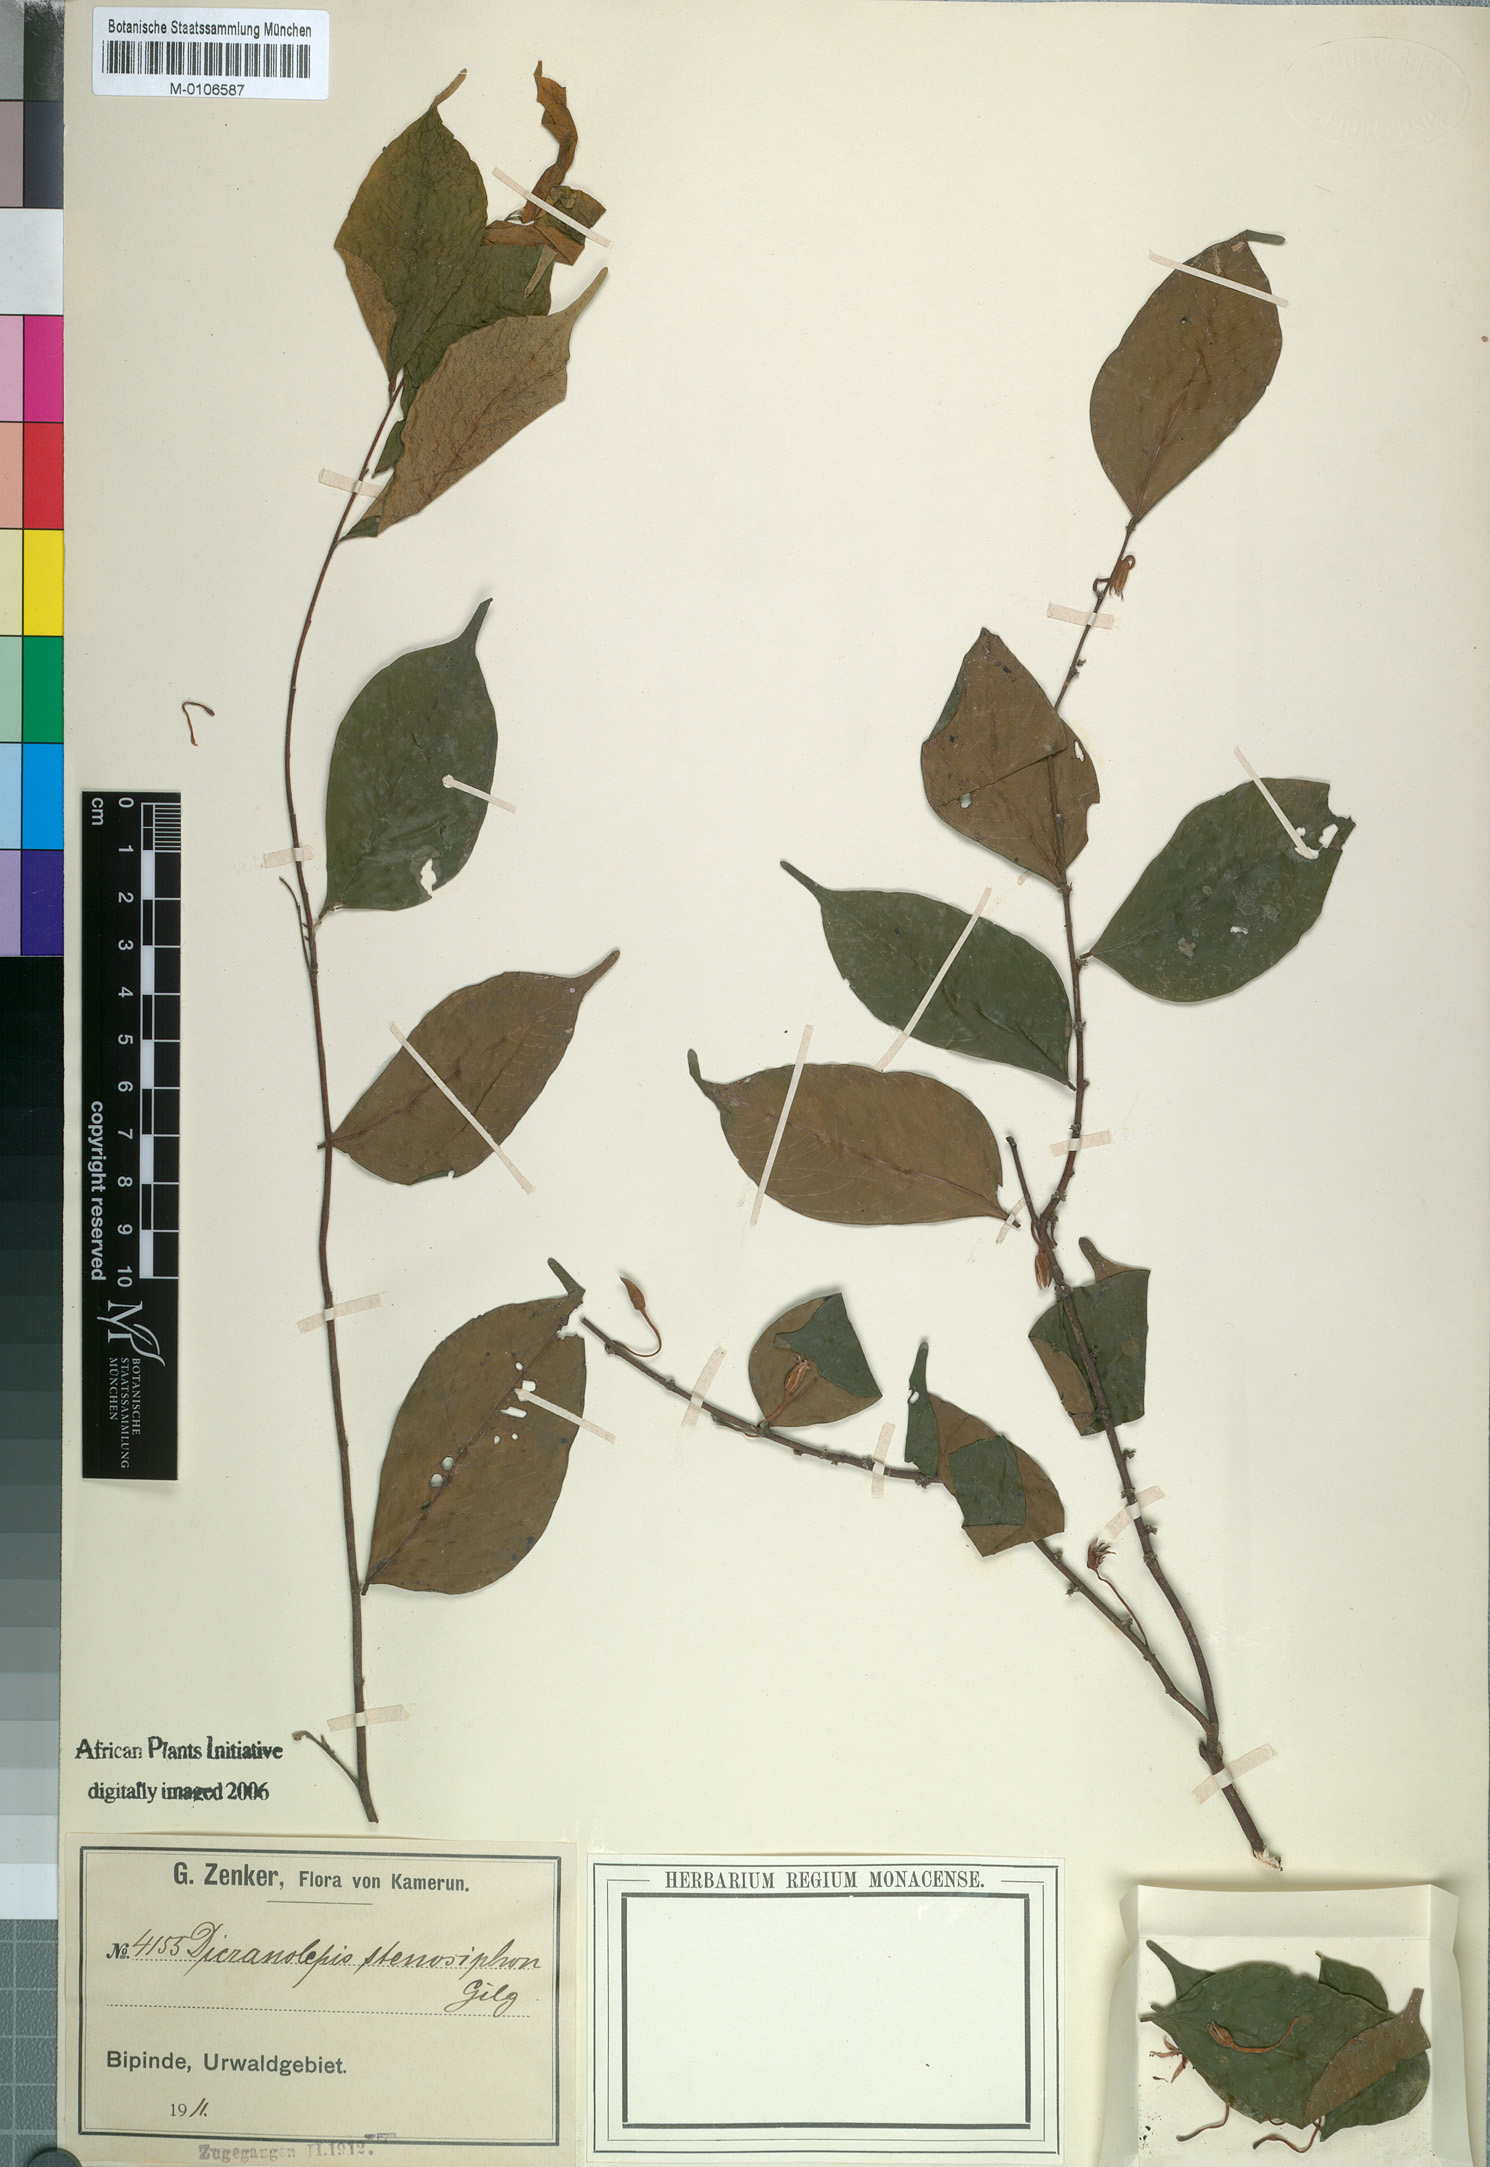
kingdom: Plantae
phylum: Tracheophyta
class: Magnoliopsida
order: Malvales
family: Thymelaeaceae
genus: Dicranolepis
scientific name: Dicranolepis disticha
